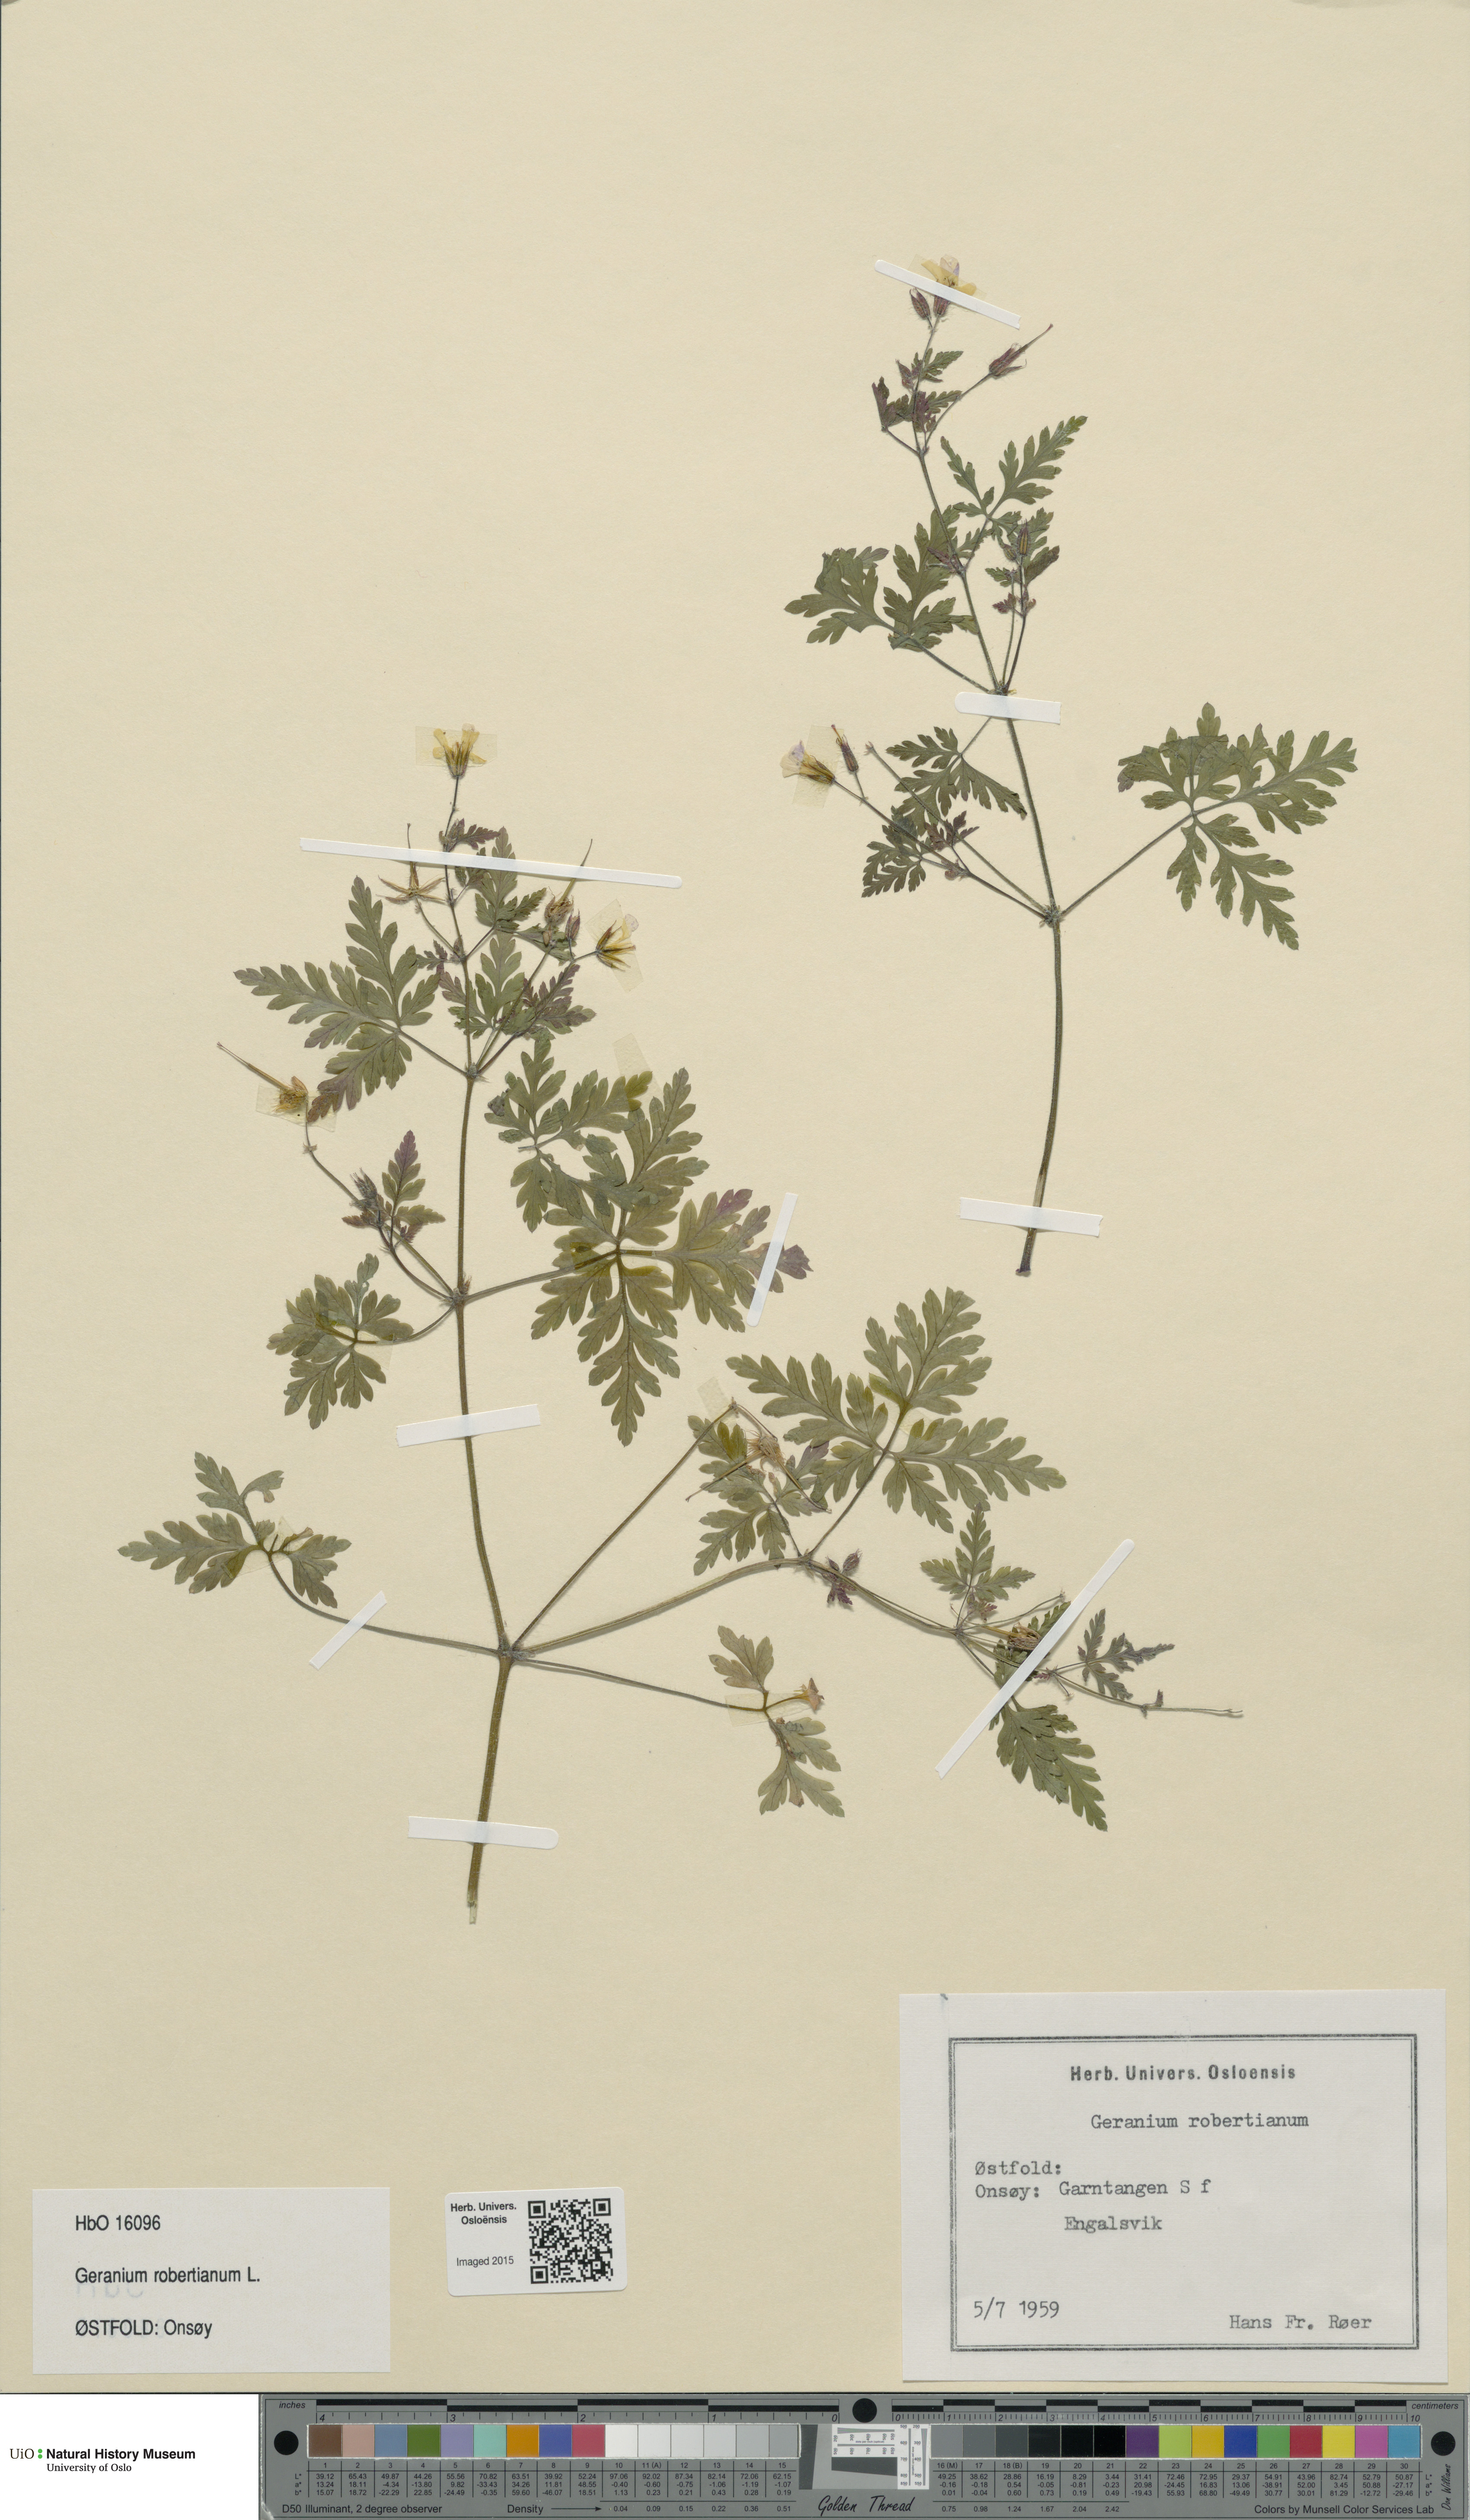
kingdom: Plantae
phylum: Tracheophyta
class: Magnoliopsida
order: Geraniales
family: Geraniaceae
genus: Geranium
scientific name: Geranium robertianum
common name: Herb-robert
